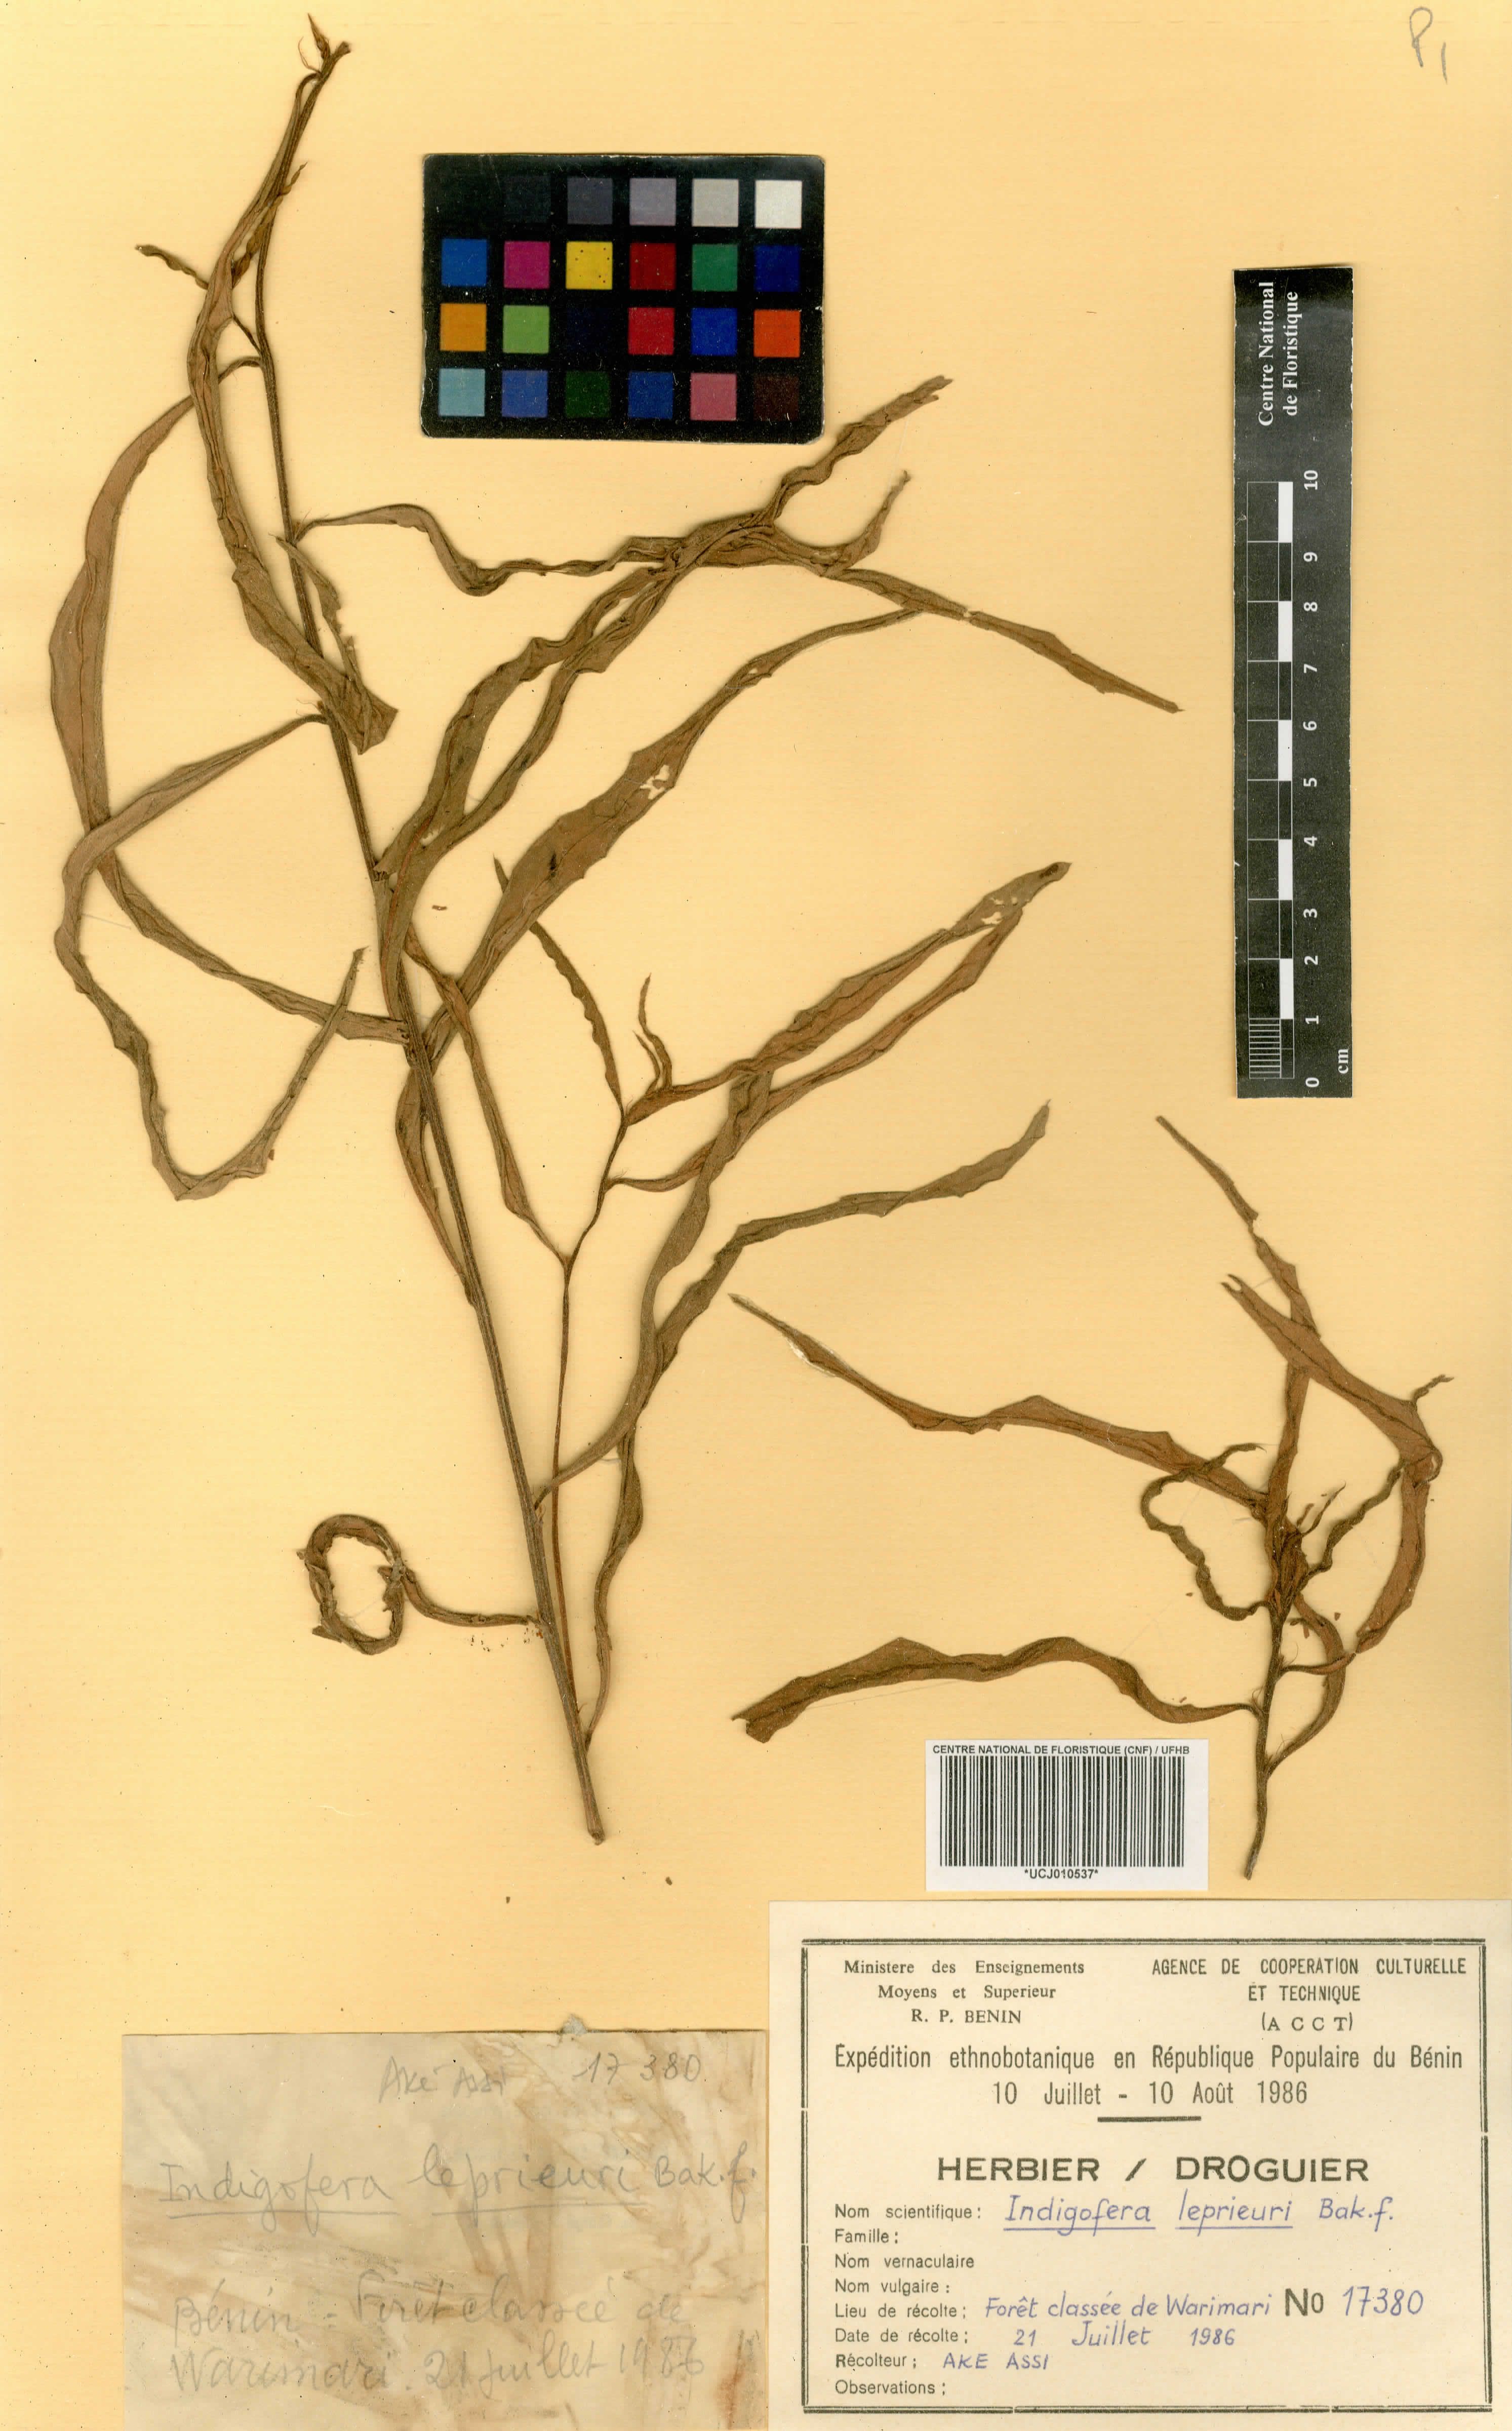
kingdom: Plantae
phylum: Tracheophyta
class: Magnoliopsida
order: Fabales
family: Fabaceae
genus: Indigofera
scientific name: Indigofera leprieurii
